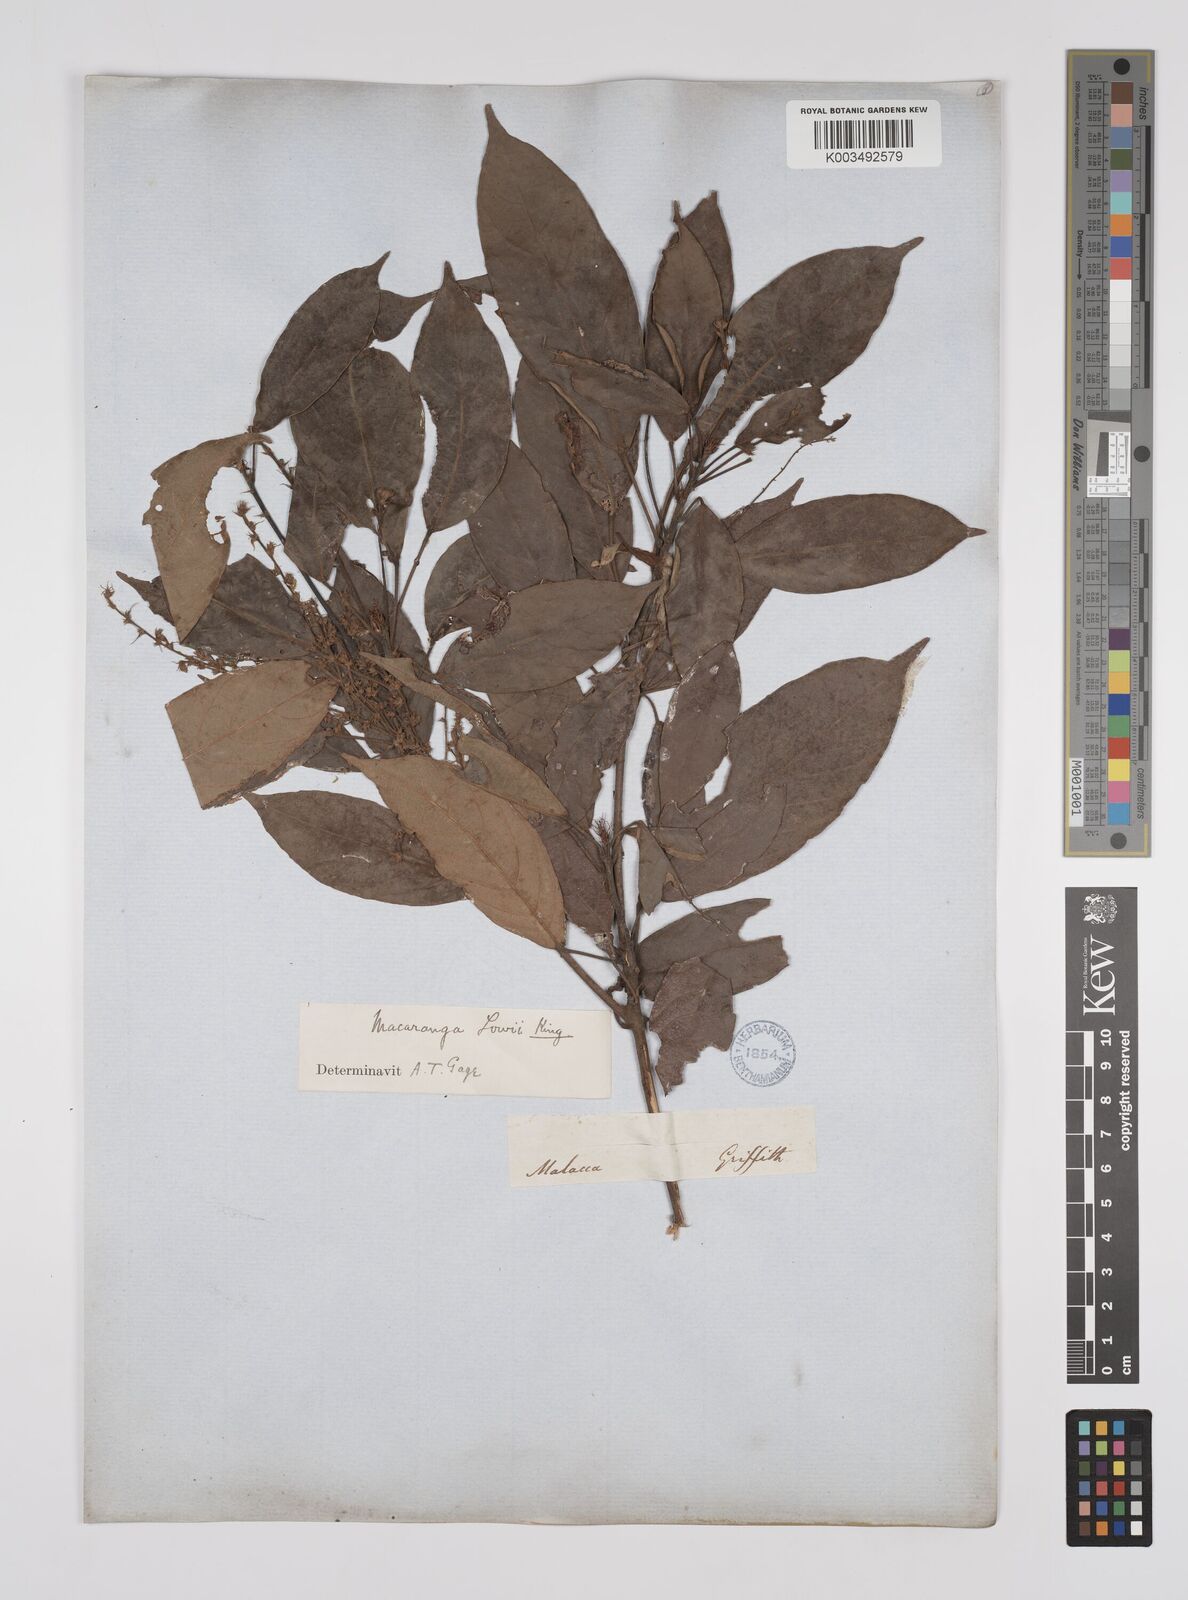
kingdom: Plantae
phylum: Tracheophyta
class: Magnoliopsida
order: Malpighiales
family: Euphorbiaceae
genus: Macaranga
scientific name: Macaranga lowii
